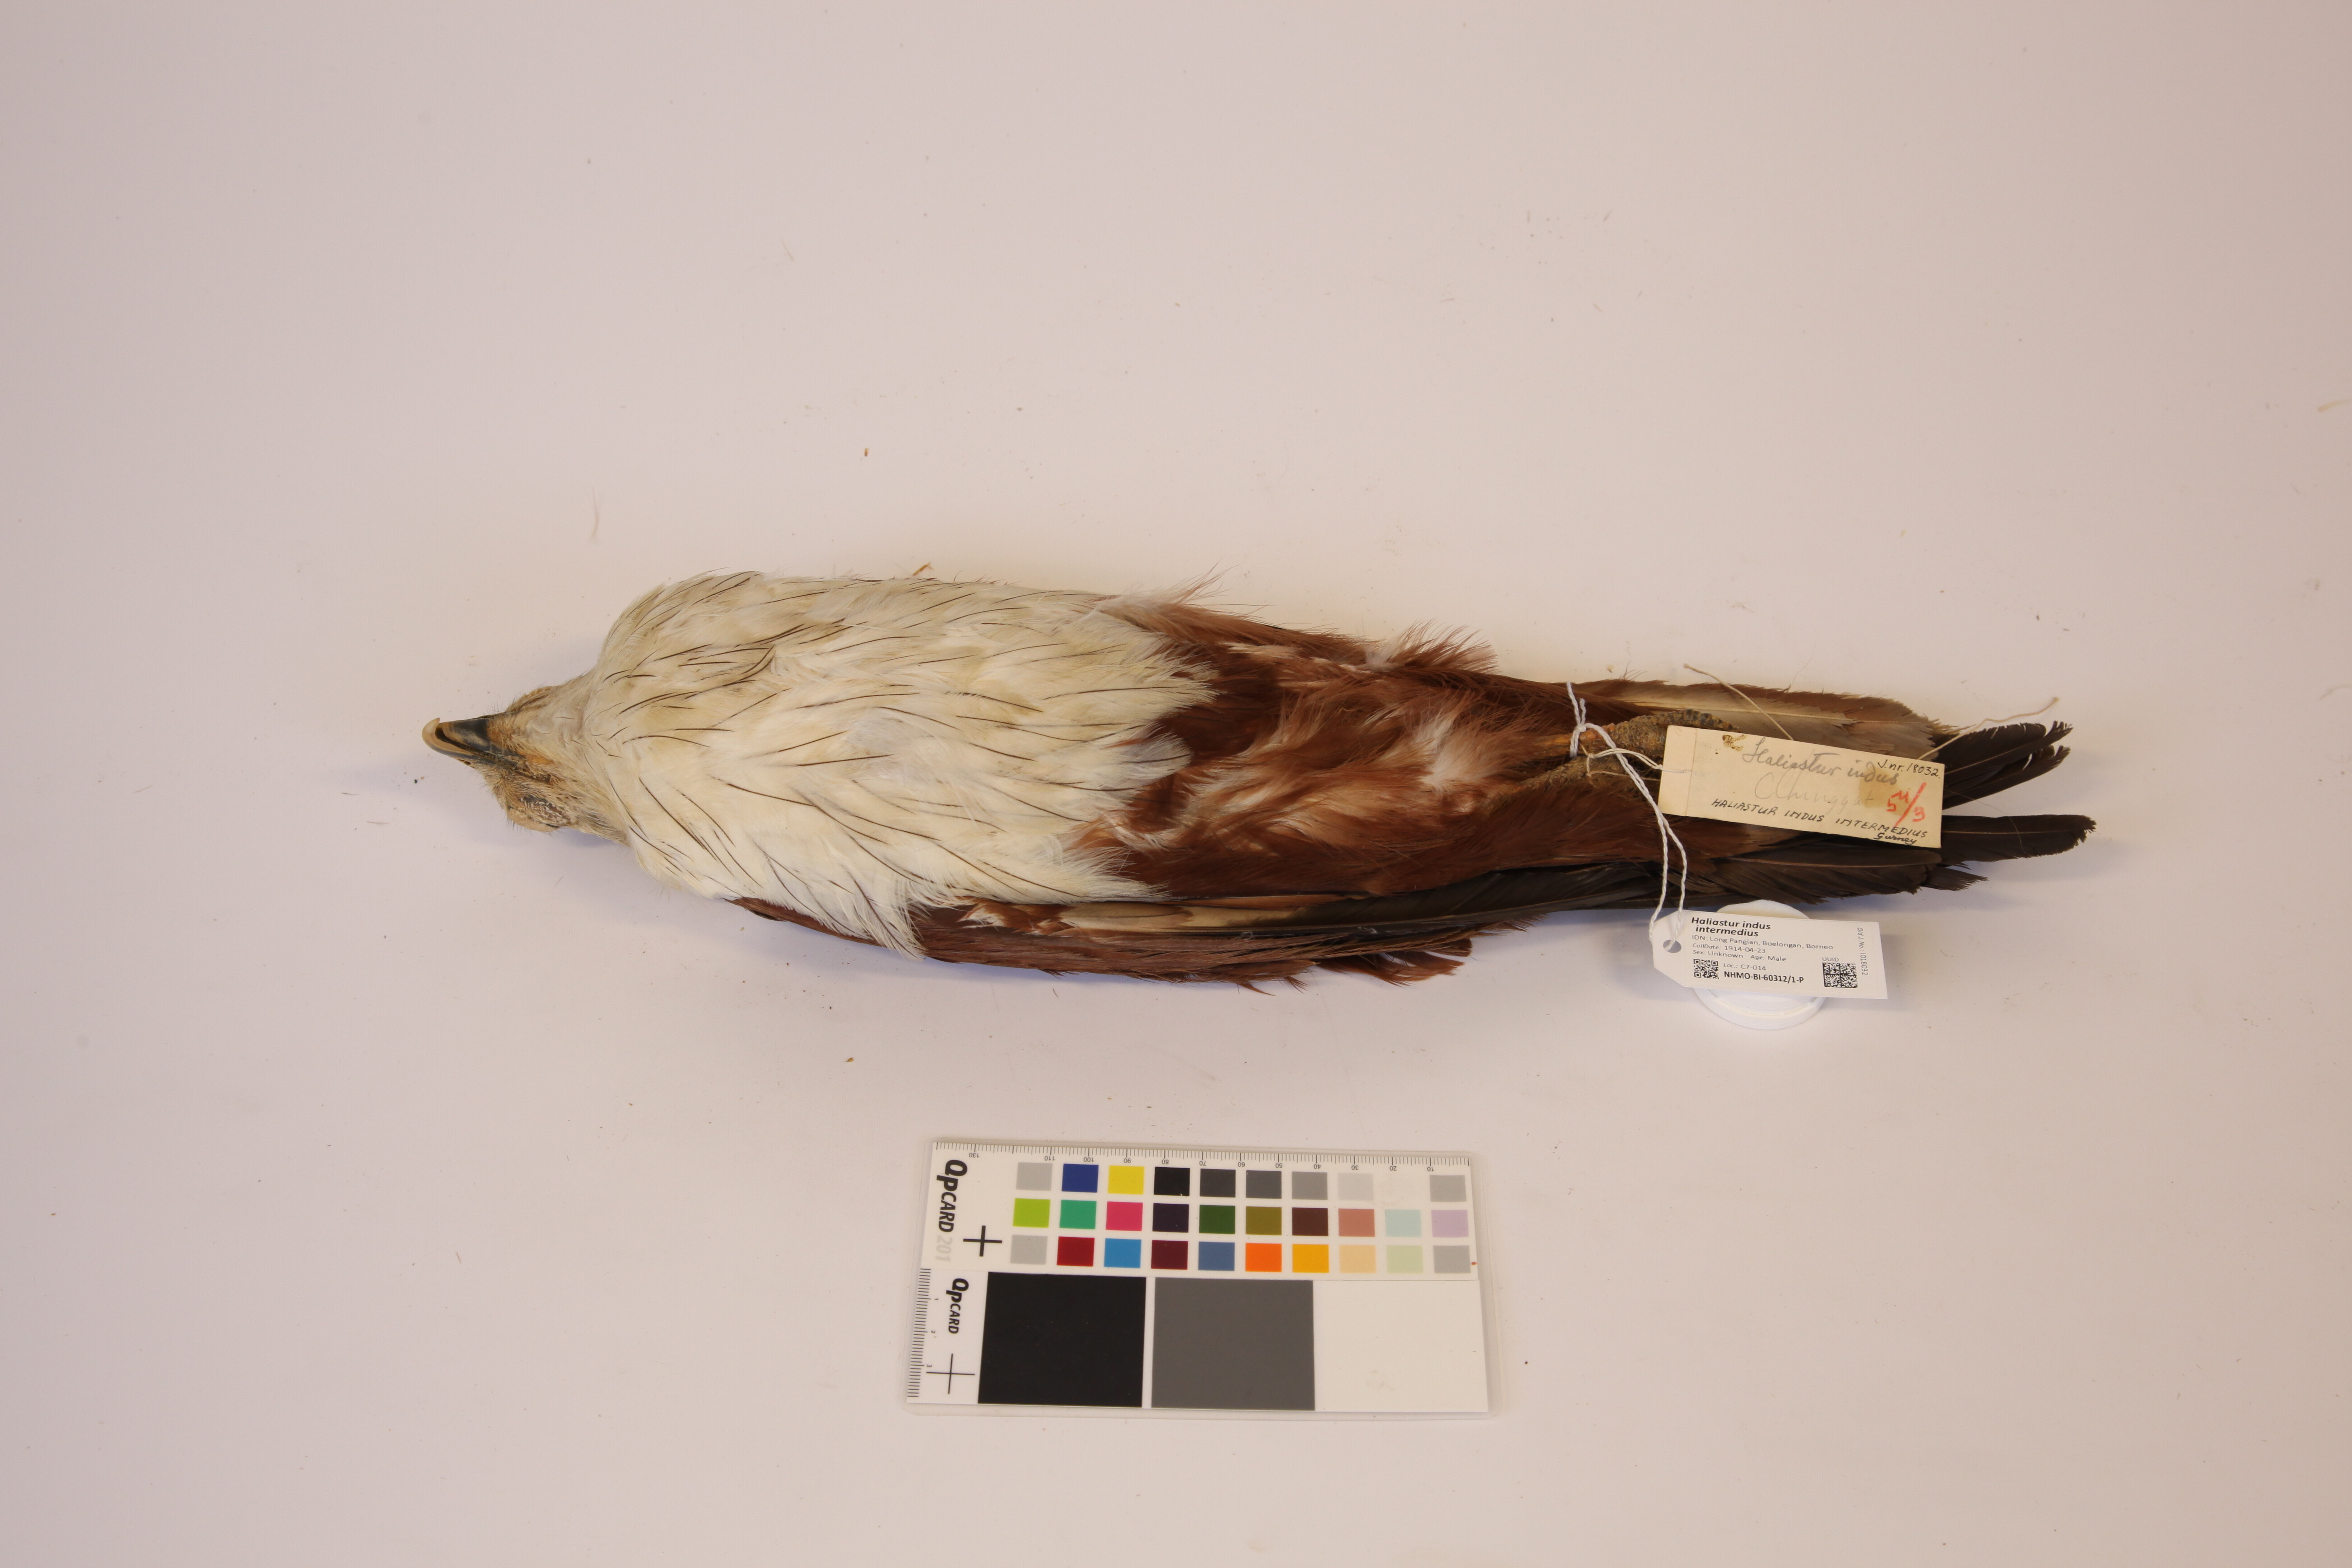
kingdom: Animalia
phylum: Chordata
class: Aves
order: Accipitriformes
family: Accipitridae
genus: Haliastur
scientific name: Haliastur indus
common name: Brahminy kite
